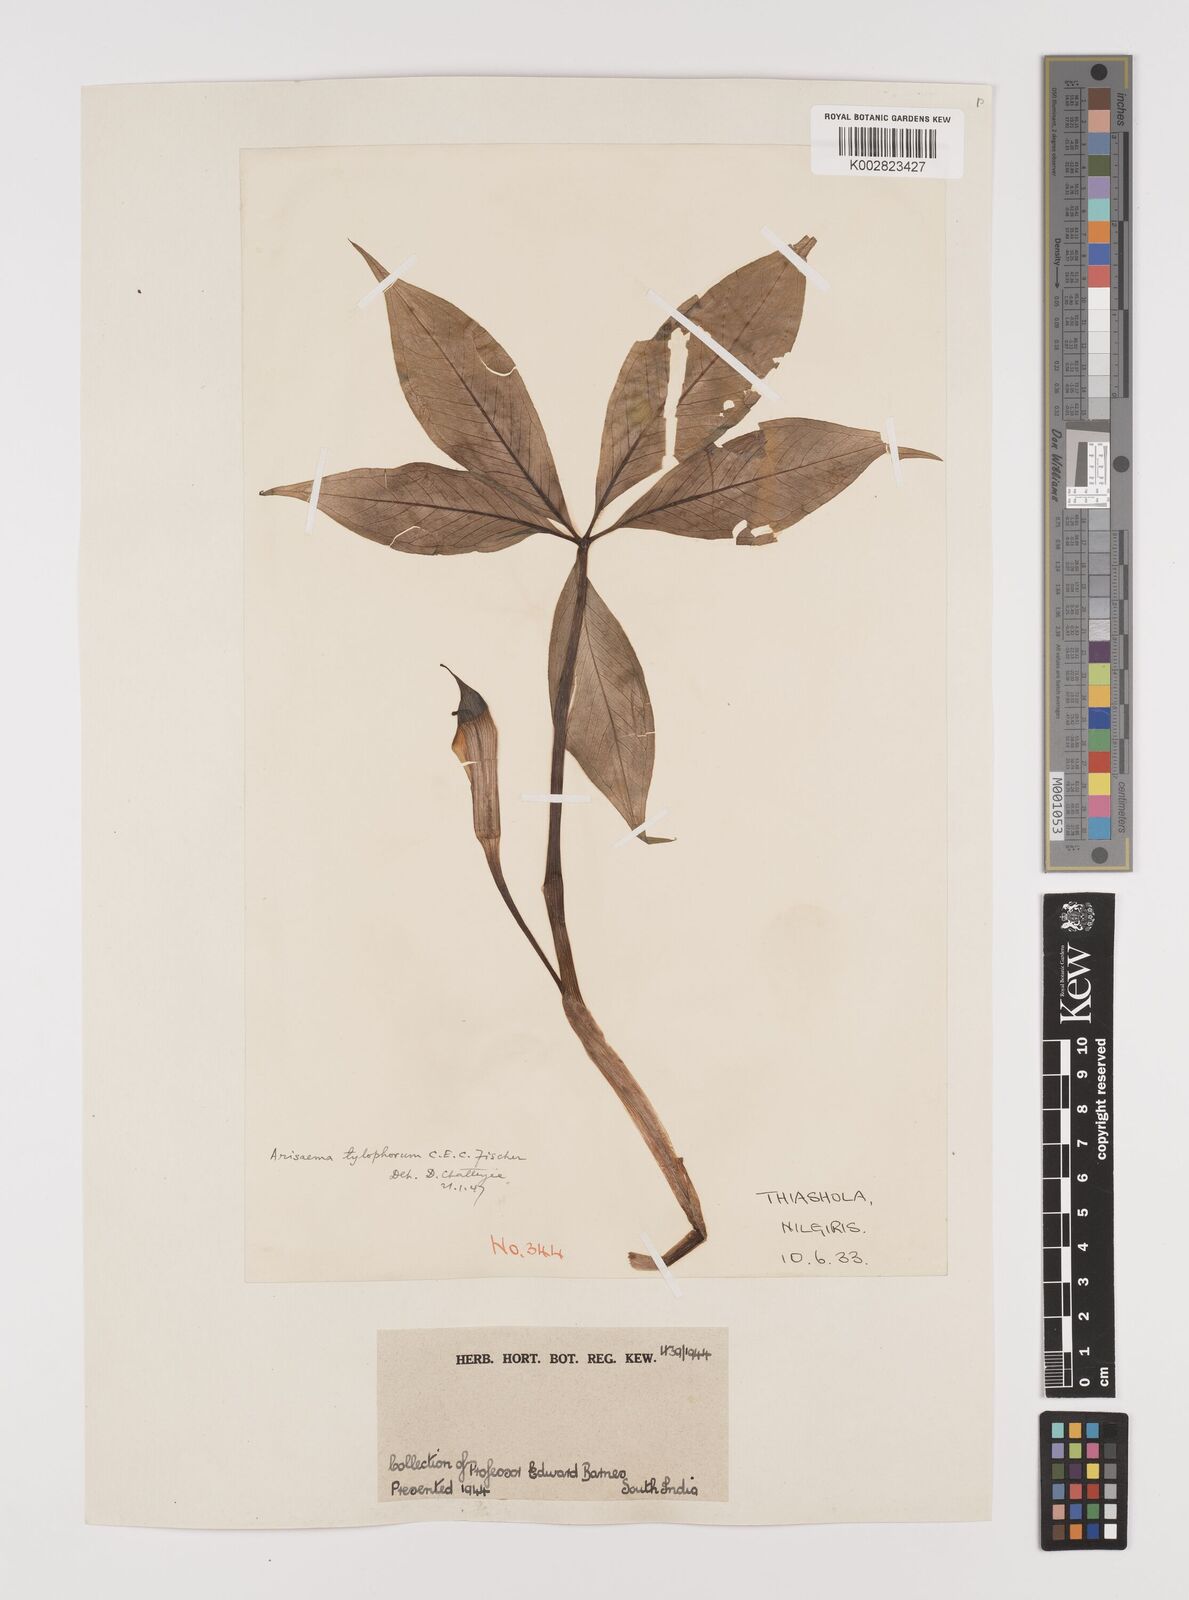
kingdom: Plantae
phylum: Tracheophyta
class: Liliopsida
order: Alismatales
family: Araceae
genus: Arisaema
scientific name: Arisaema barnesii
